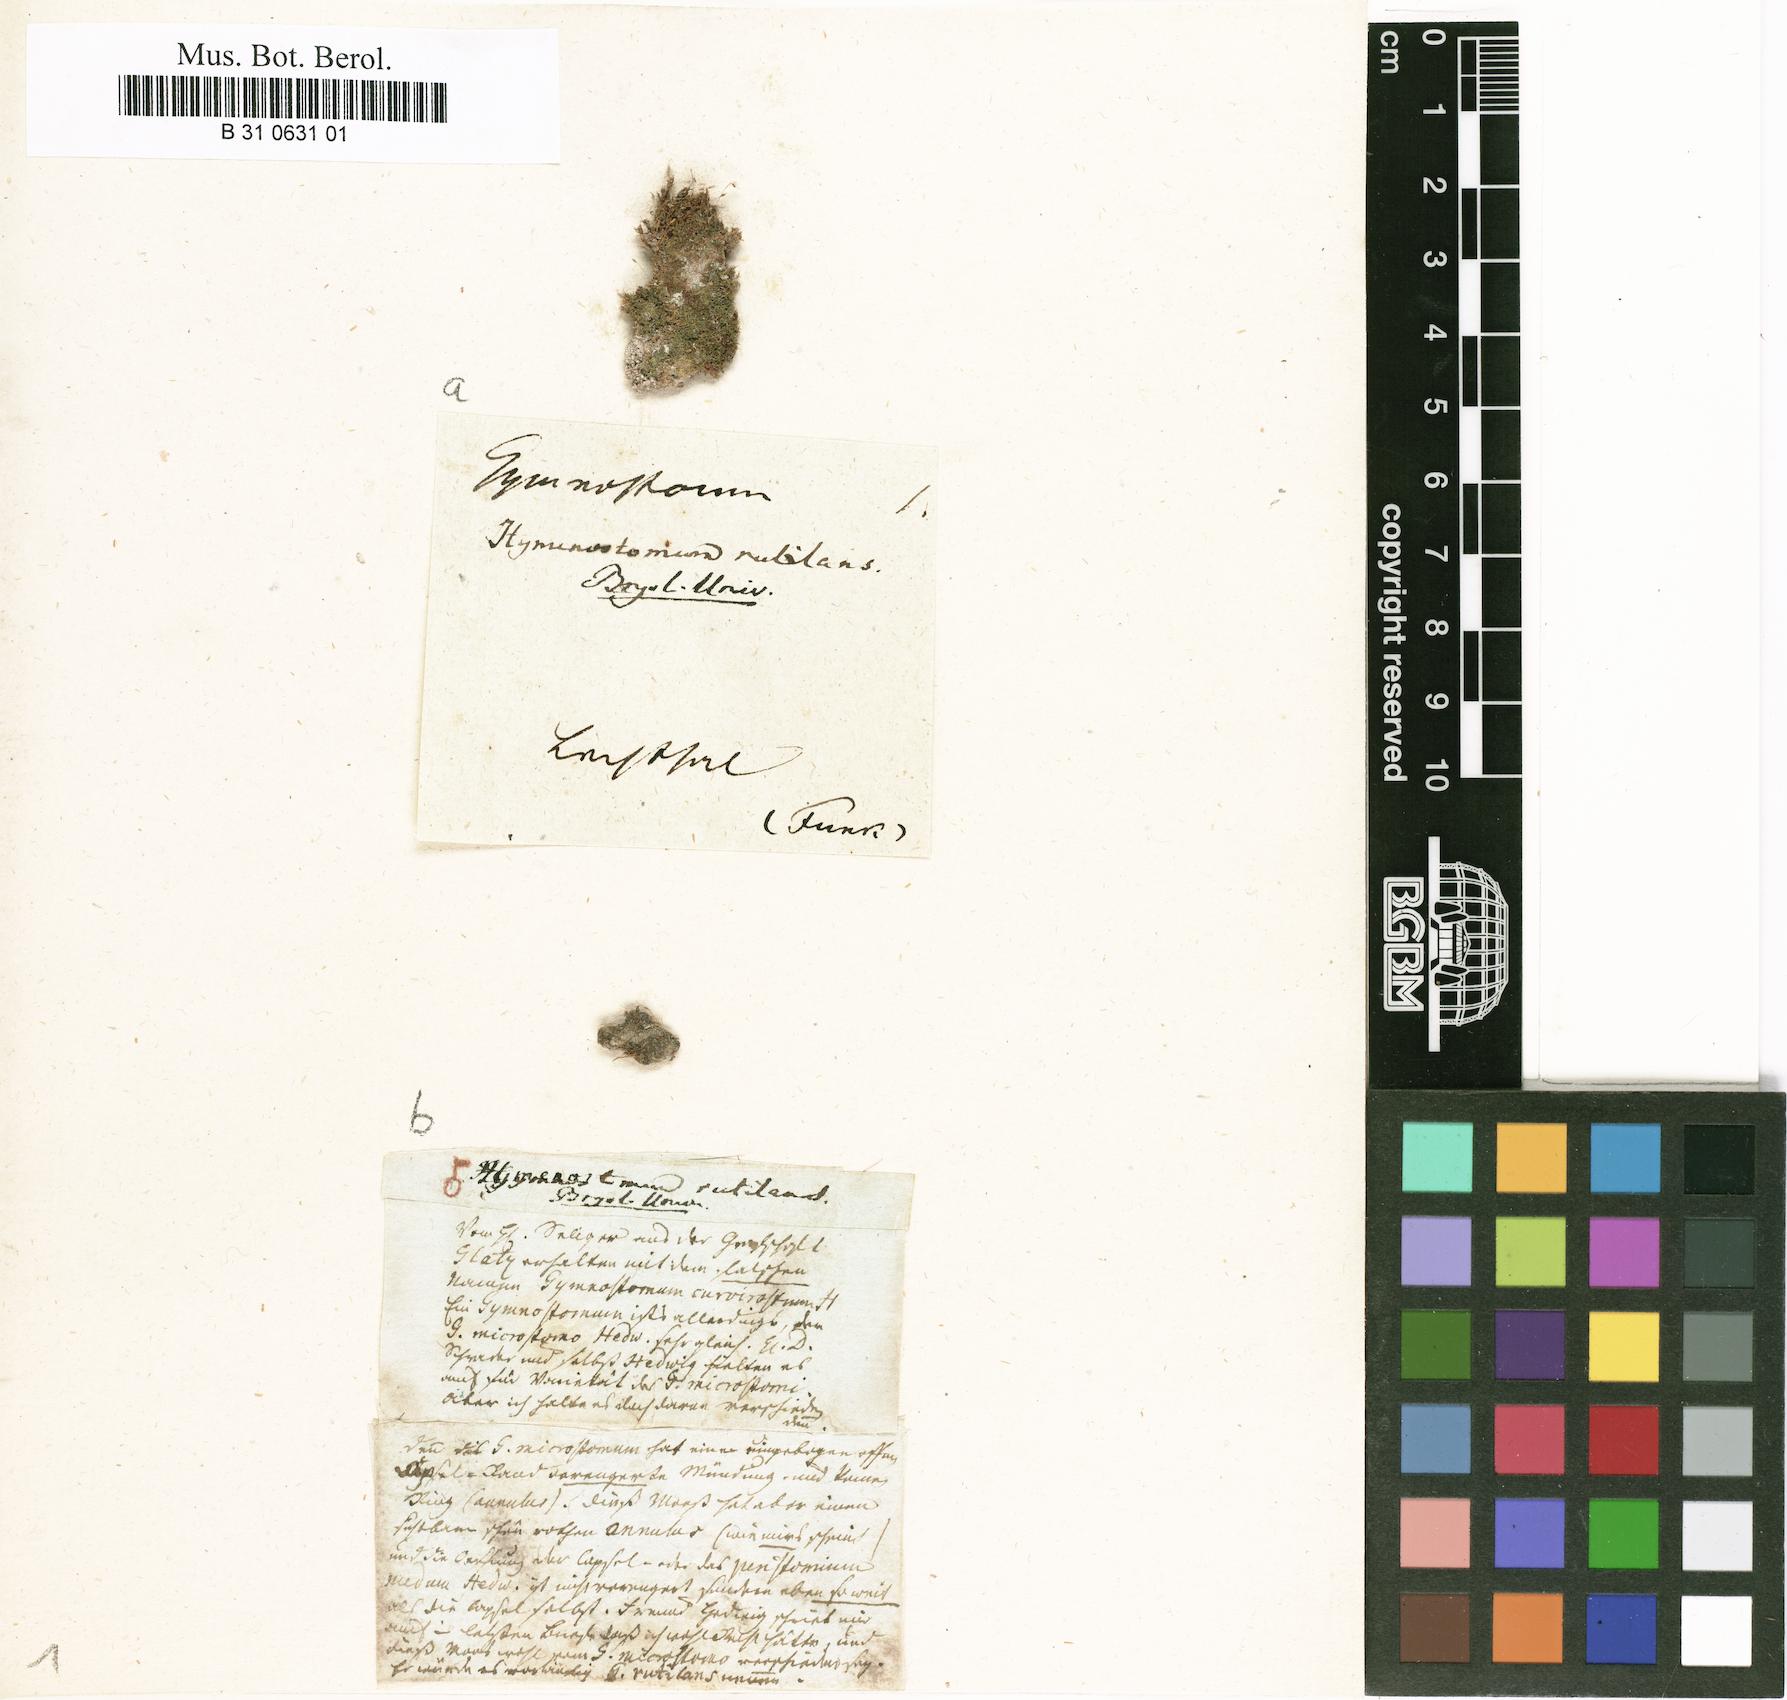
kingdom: Plantae
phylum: Bryophyta
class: Bryopsida
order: Pottiales
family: Pottiaceae
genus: Weissia
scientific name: Weissia rutilans
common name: Pointed-leaved stubble-moss
